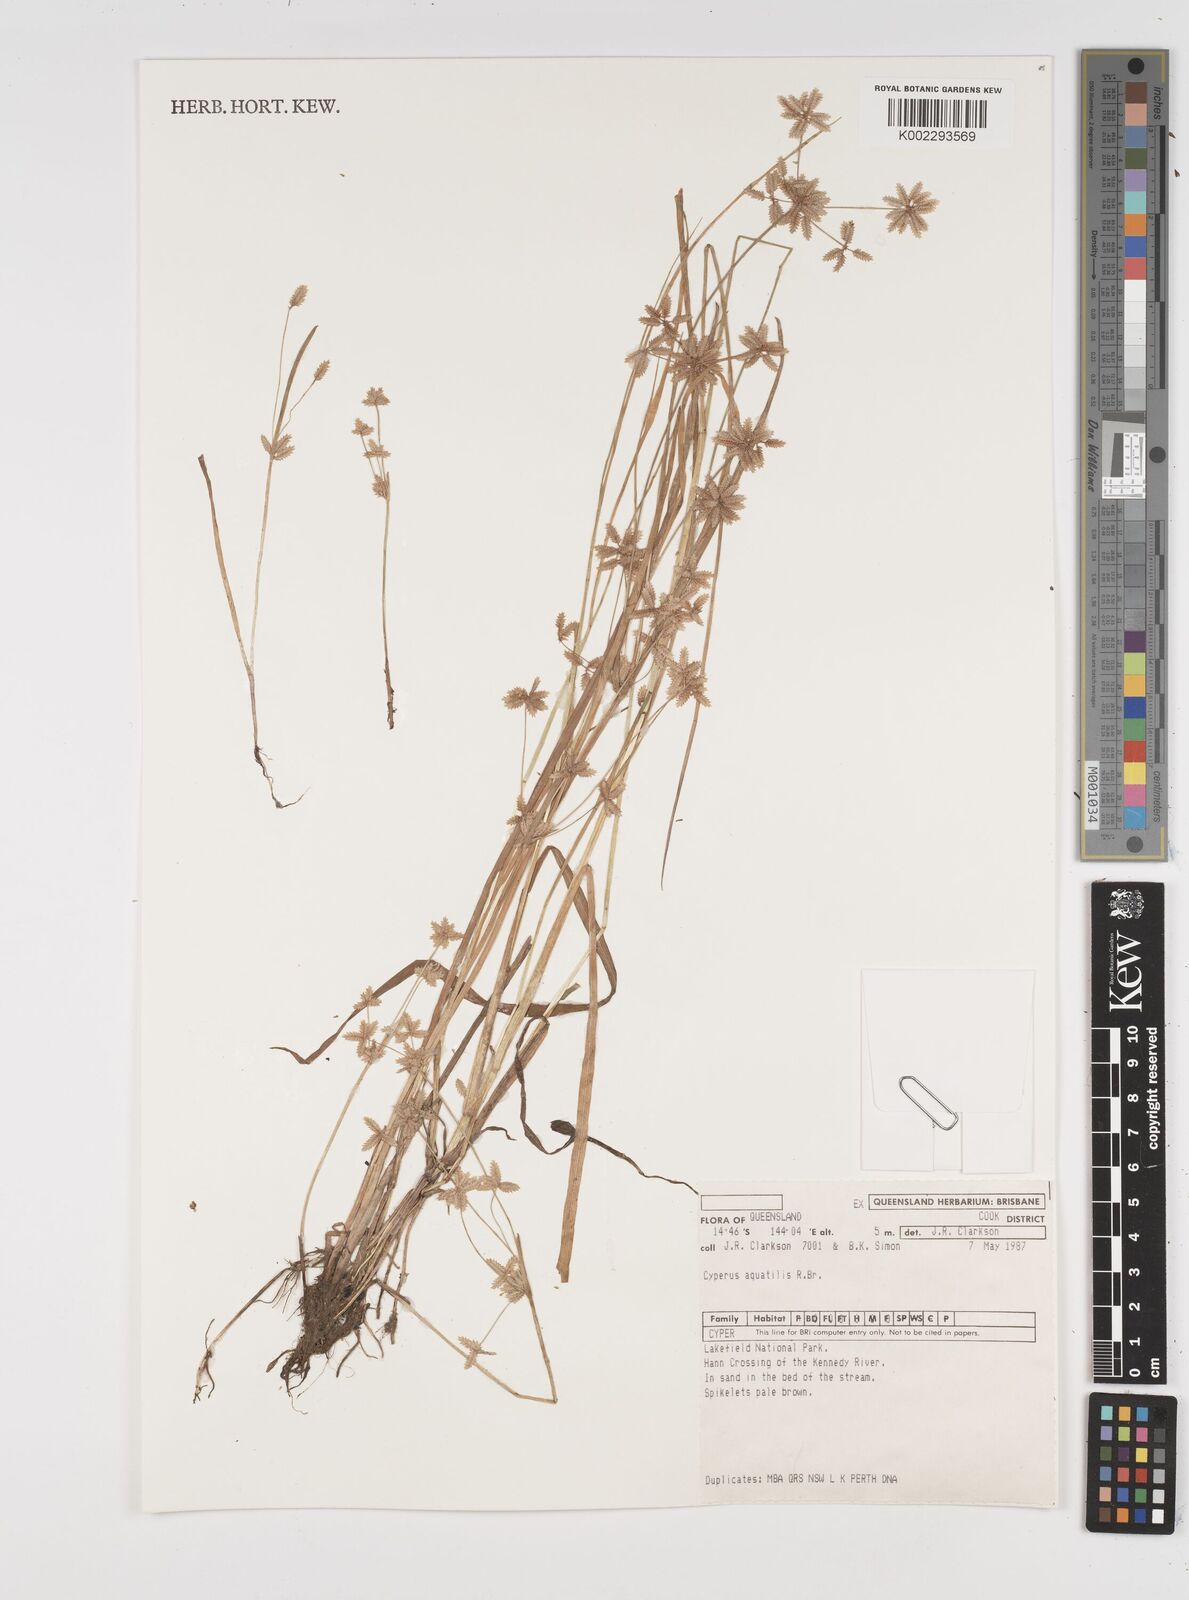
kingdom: Plantae
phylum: Tracheophyta
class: Liliopsida
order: Poales
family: Cyperaceae
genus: Cyperus
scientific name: Cyperus aquatilis
